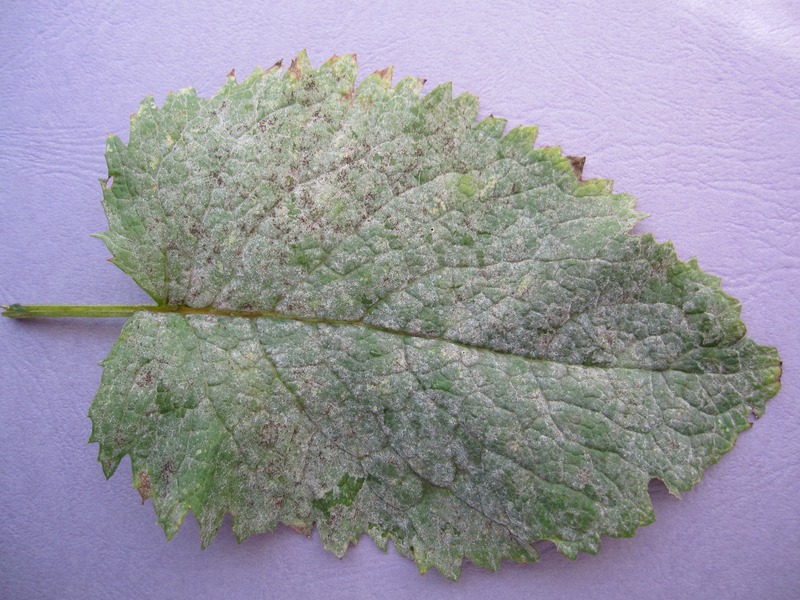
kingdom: Fungi
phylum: Ascomycota
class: Leotiomycetes
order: Helotiales
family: Erysiphaceae
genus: Podosphaera
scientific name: Podosphaera fusca
